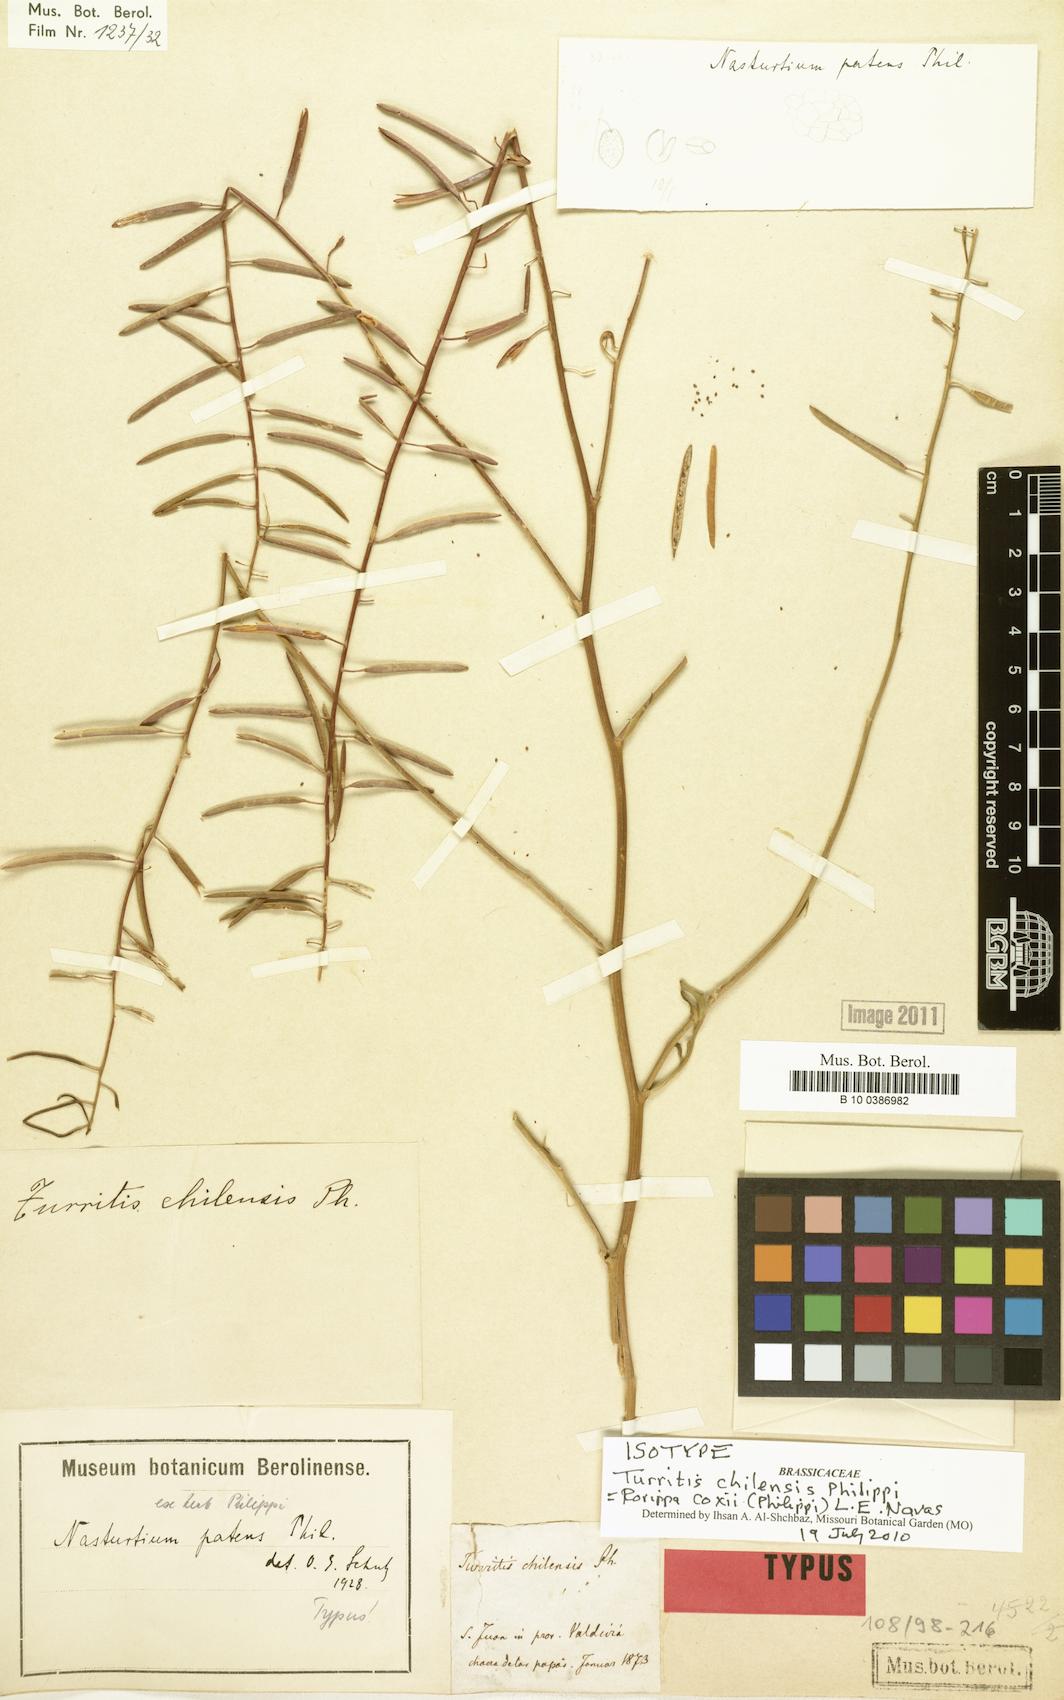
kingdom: Plantae
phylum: Tracheophyta
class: Magnoliopsida
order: Brassicales
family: Brassicaceae
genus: Rorippa
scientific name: Rorippa coxii
